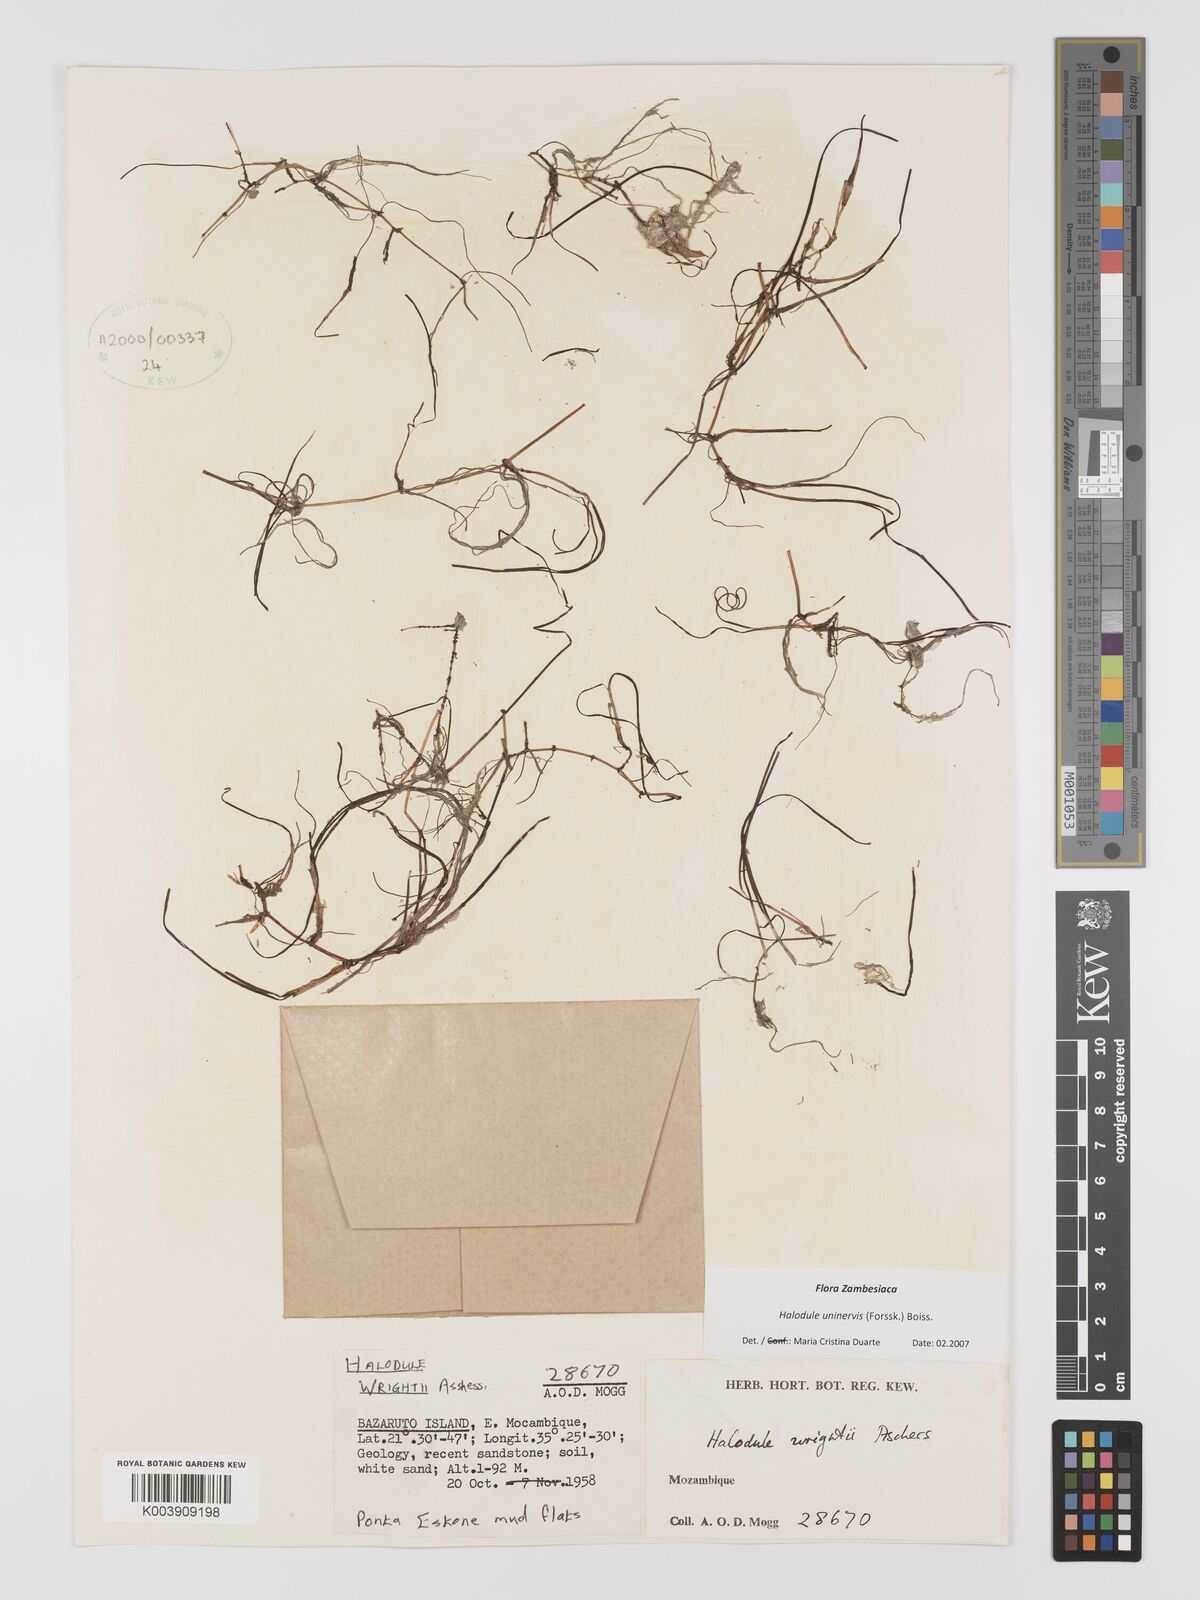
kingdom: Plantae
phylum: Tracheophyta
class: Liliopsida
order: Alismatales
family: Cymodoceaceae
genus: Halodule
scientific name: Halodule uninervis
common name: Narrowleaf seagrass
